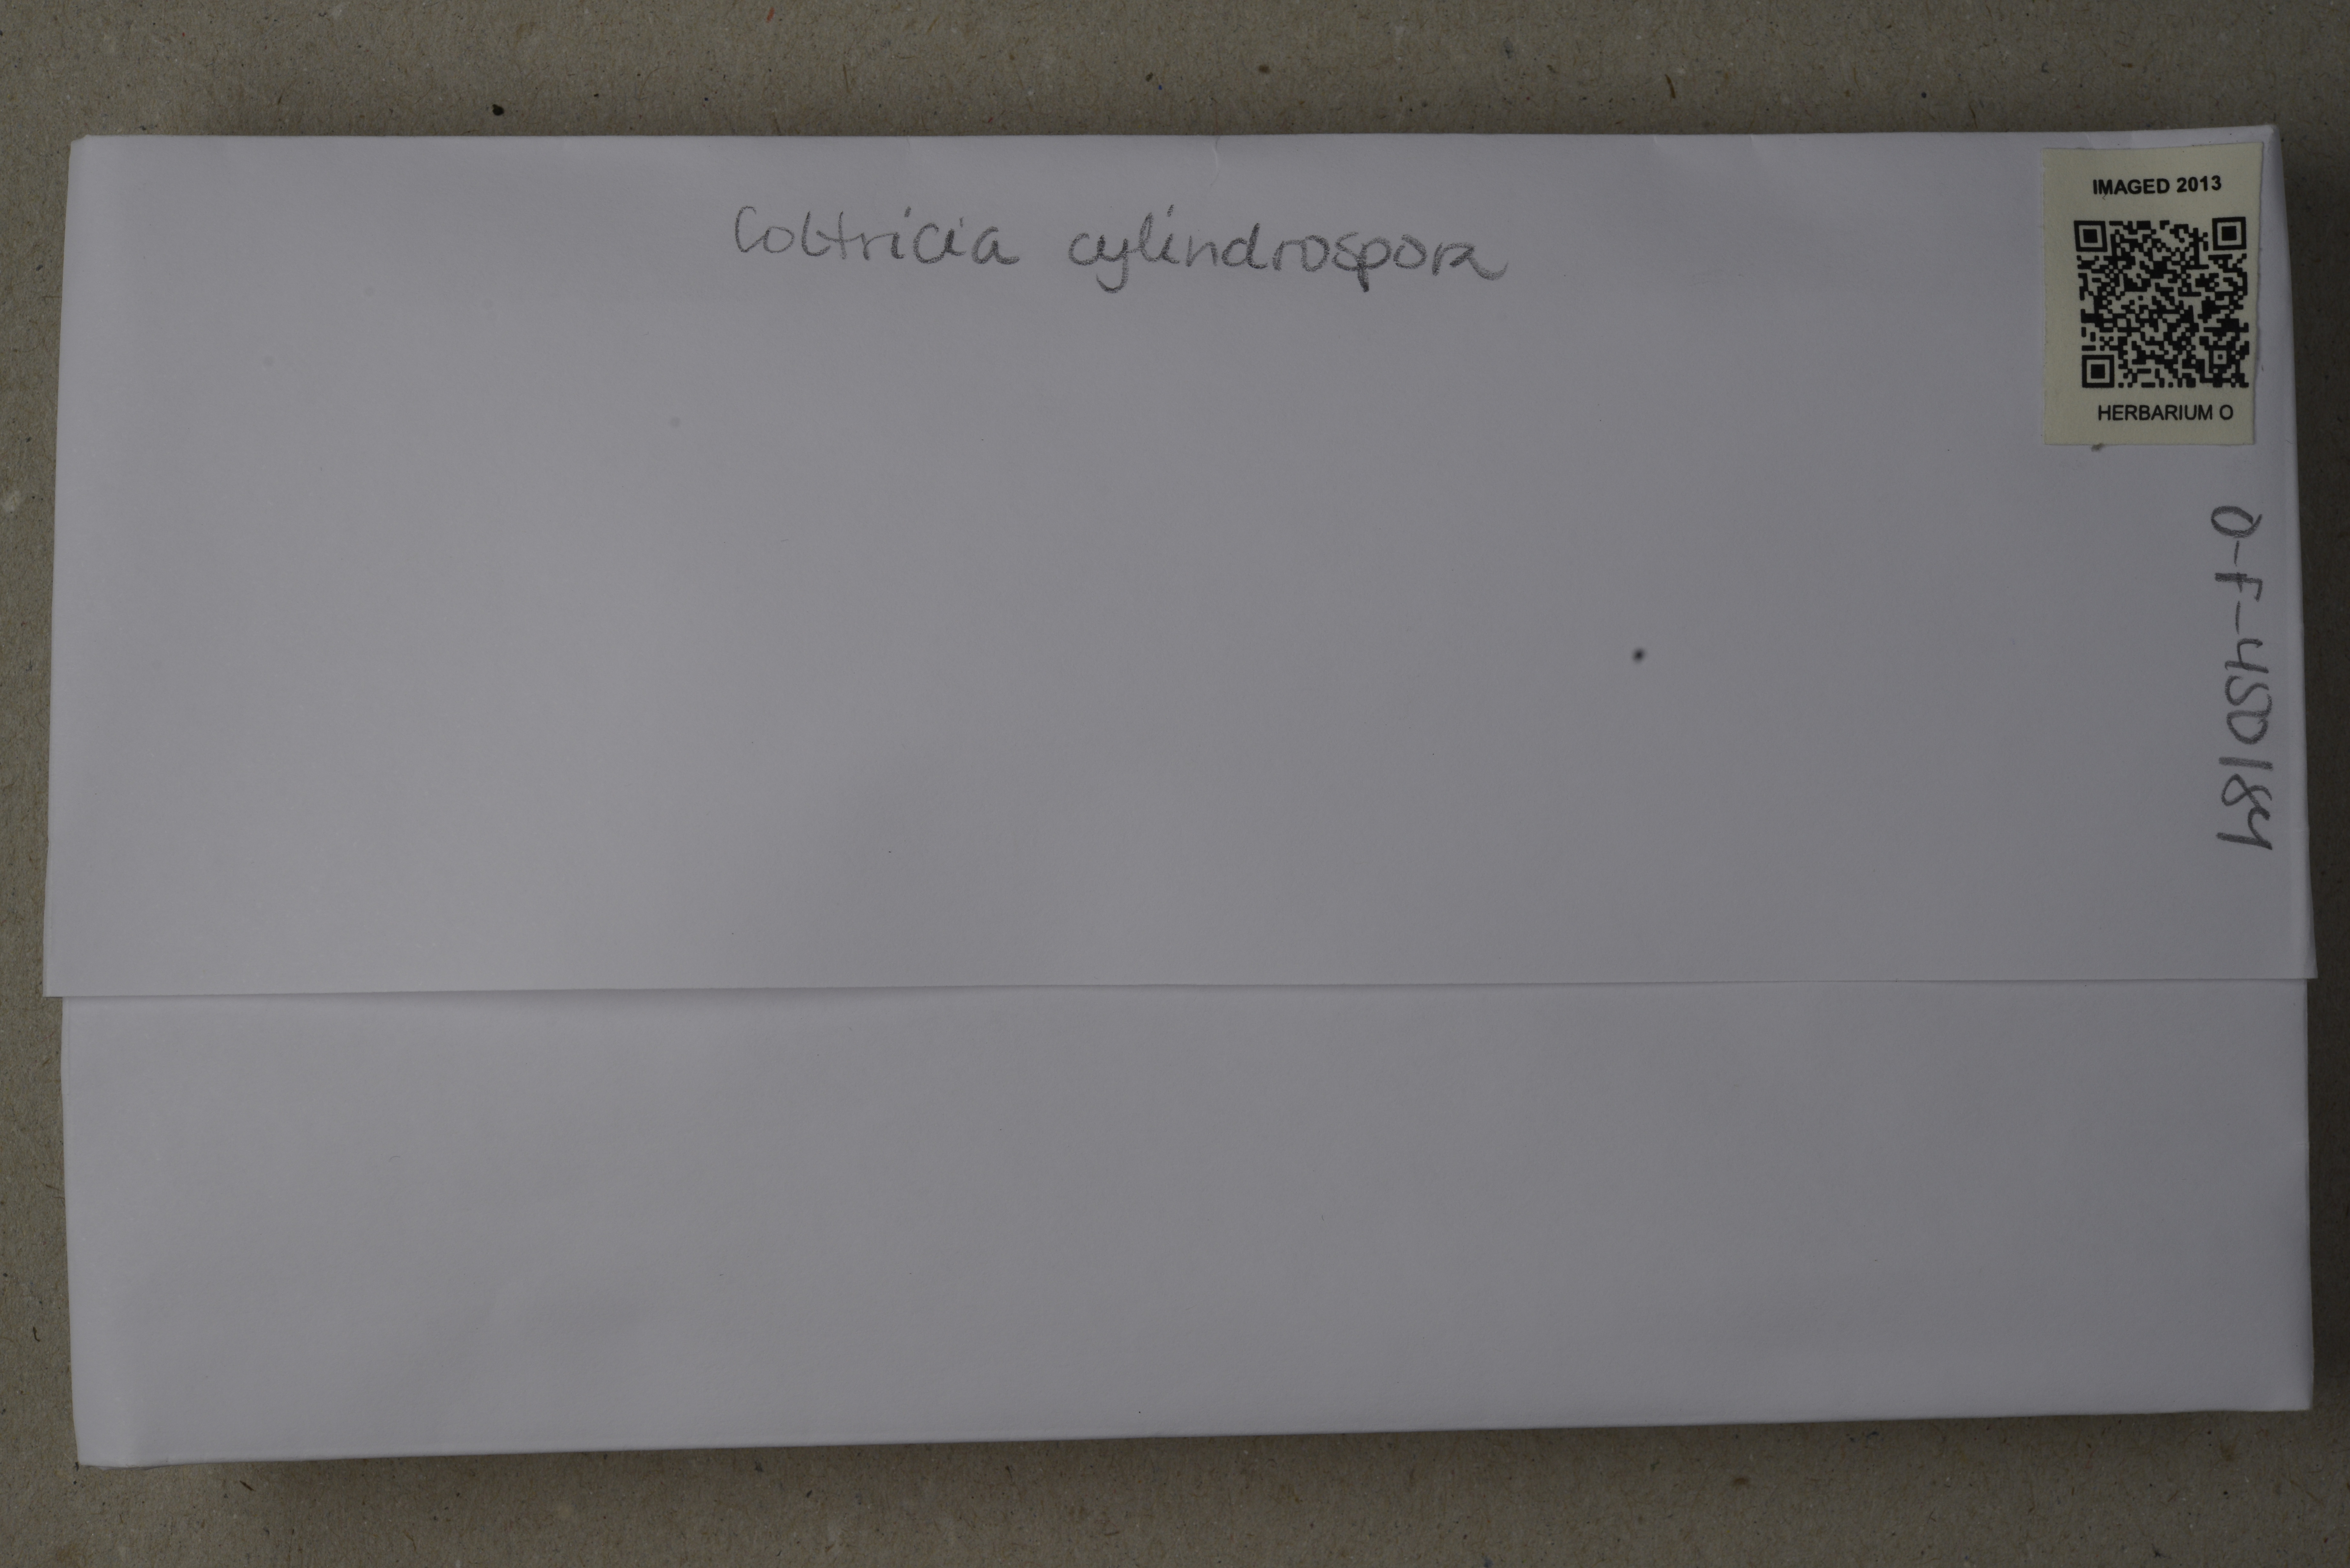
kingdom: Fungi
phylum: Basidiomycota
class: Agaricomycetes
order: Hymenochaetales
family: Hymenochaetaceae
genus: Coltricia
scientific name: Coltricia cylindrospora
